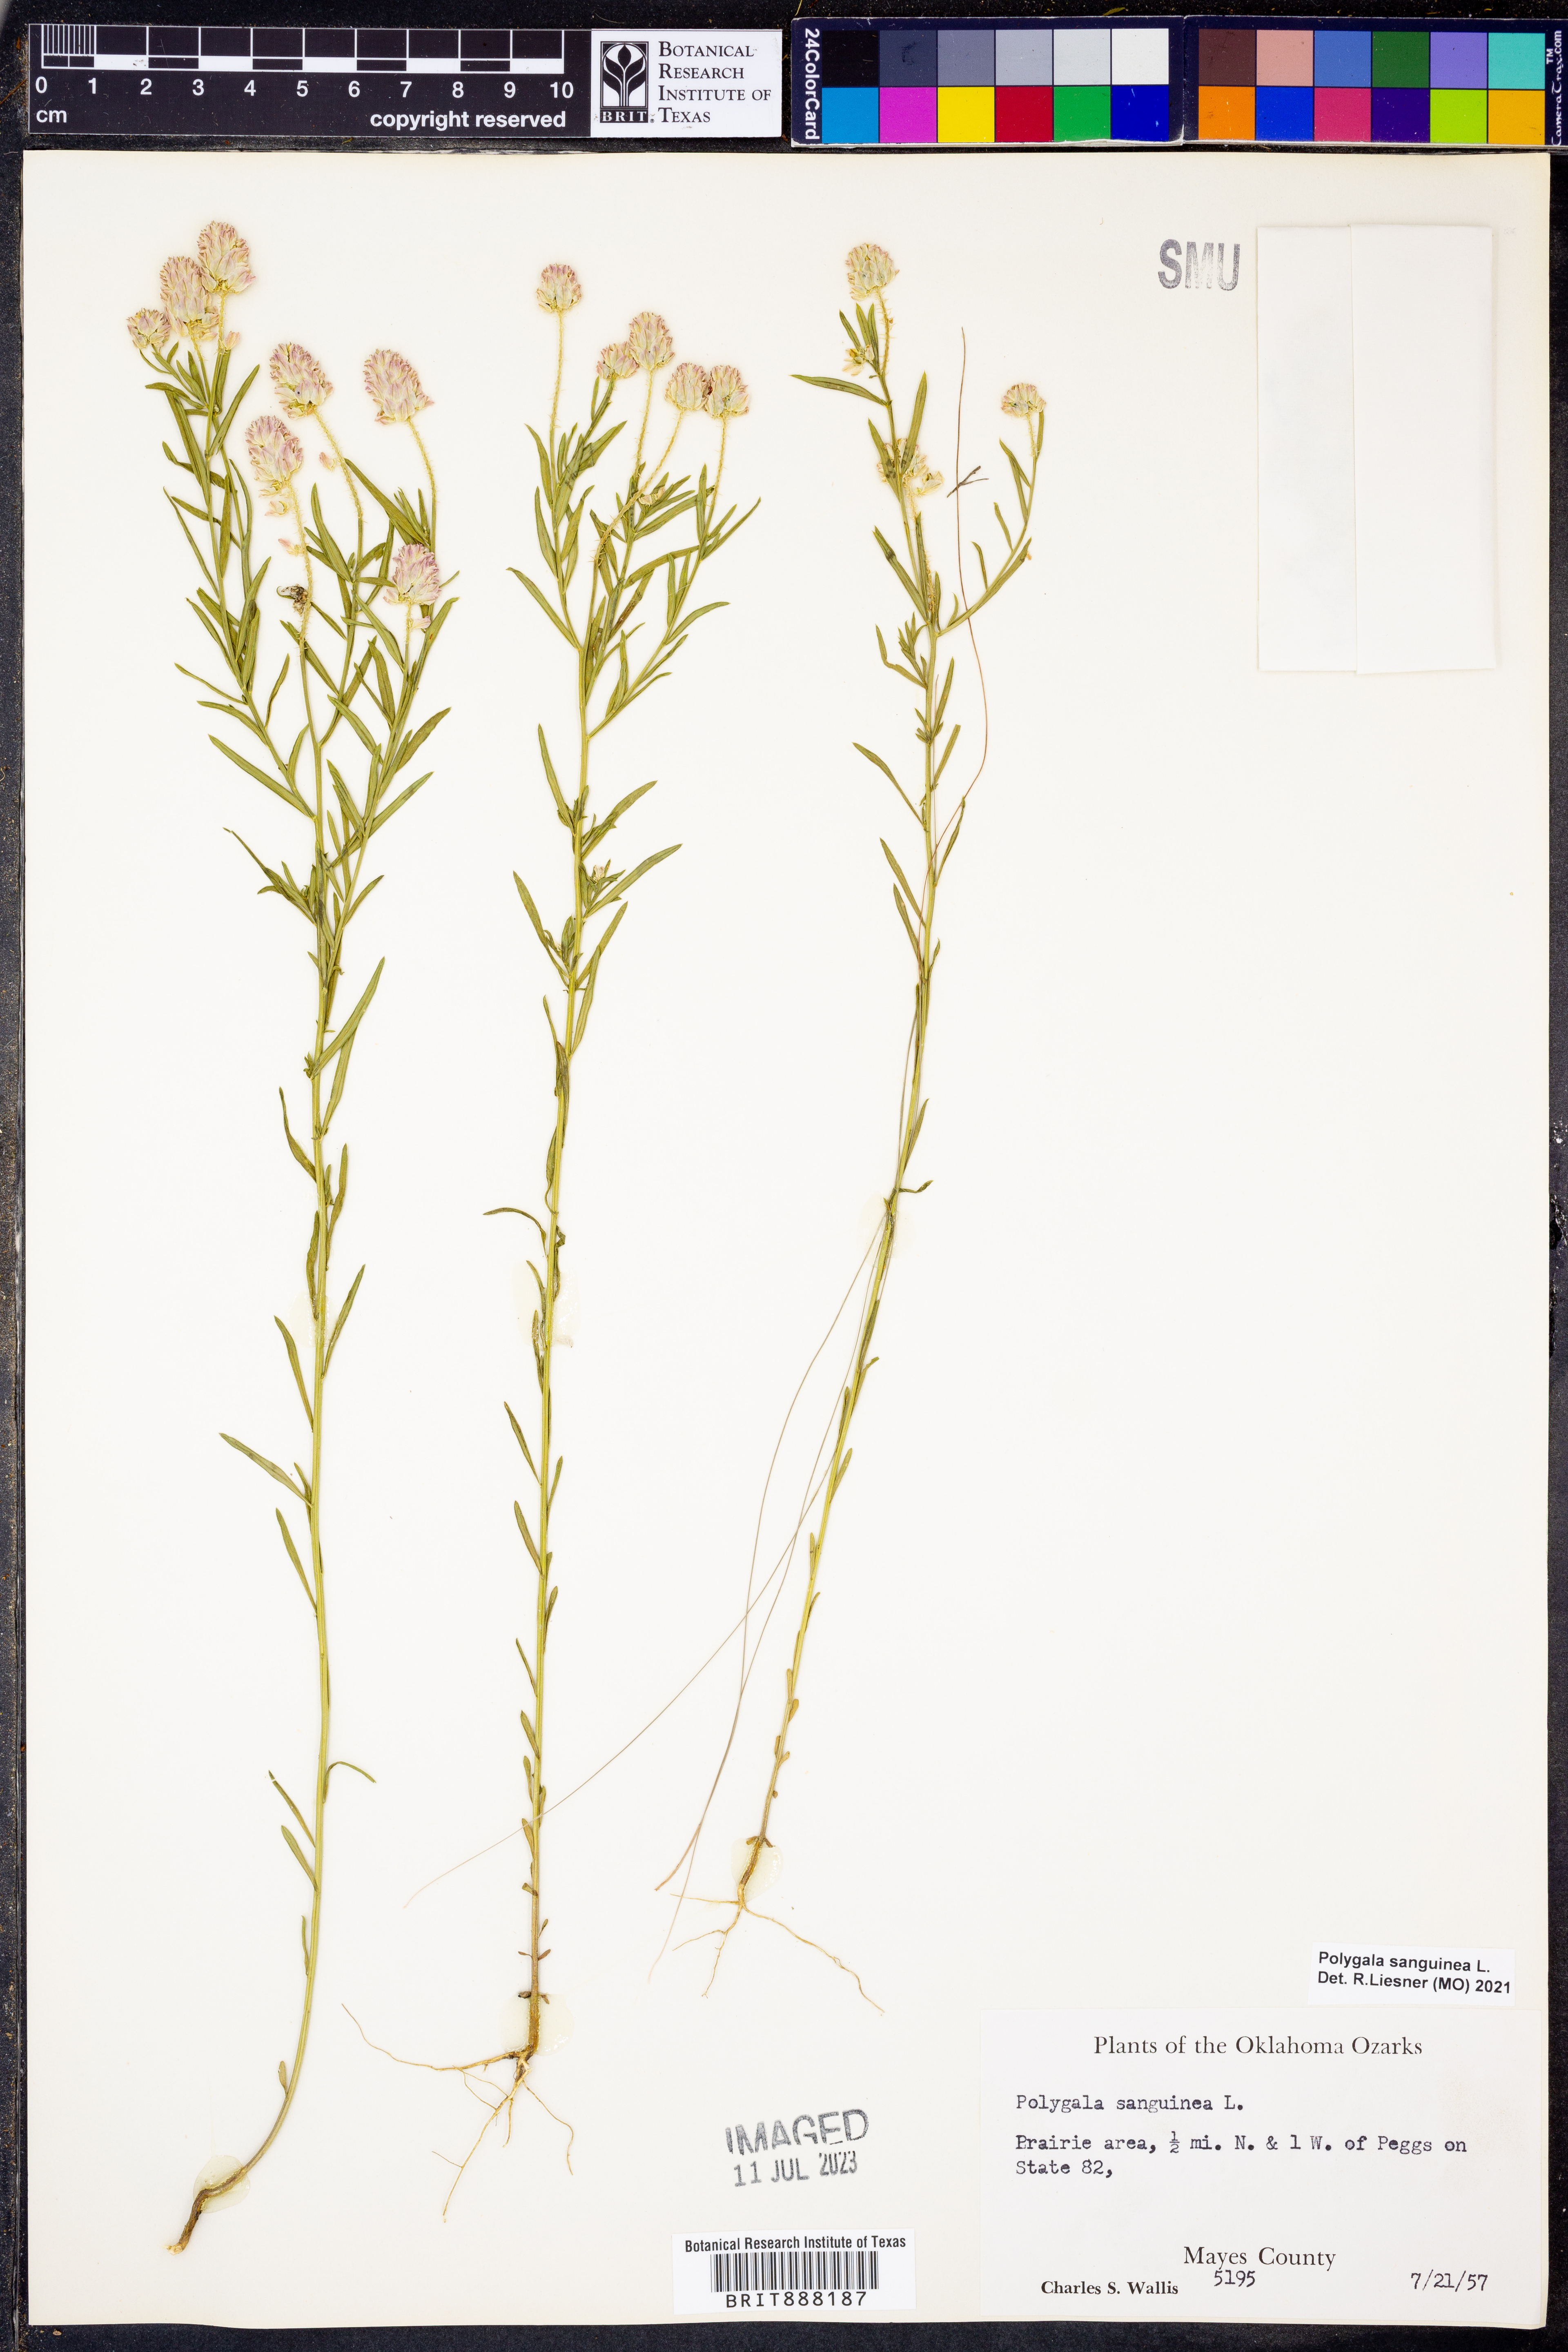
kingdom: Plantae
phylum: Tracheophyta
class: Magnoliopsida
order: Fabales
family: Polygalaceae
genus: Polygala
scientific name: Polygala sanguinea
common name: Blood milkwort
